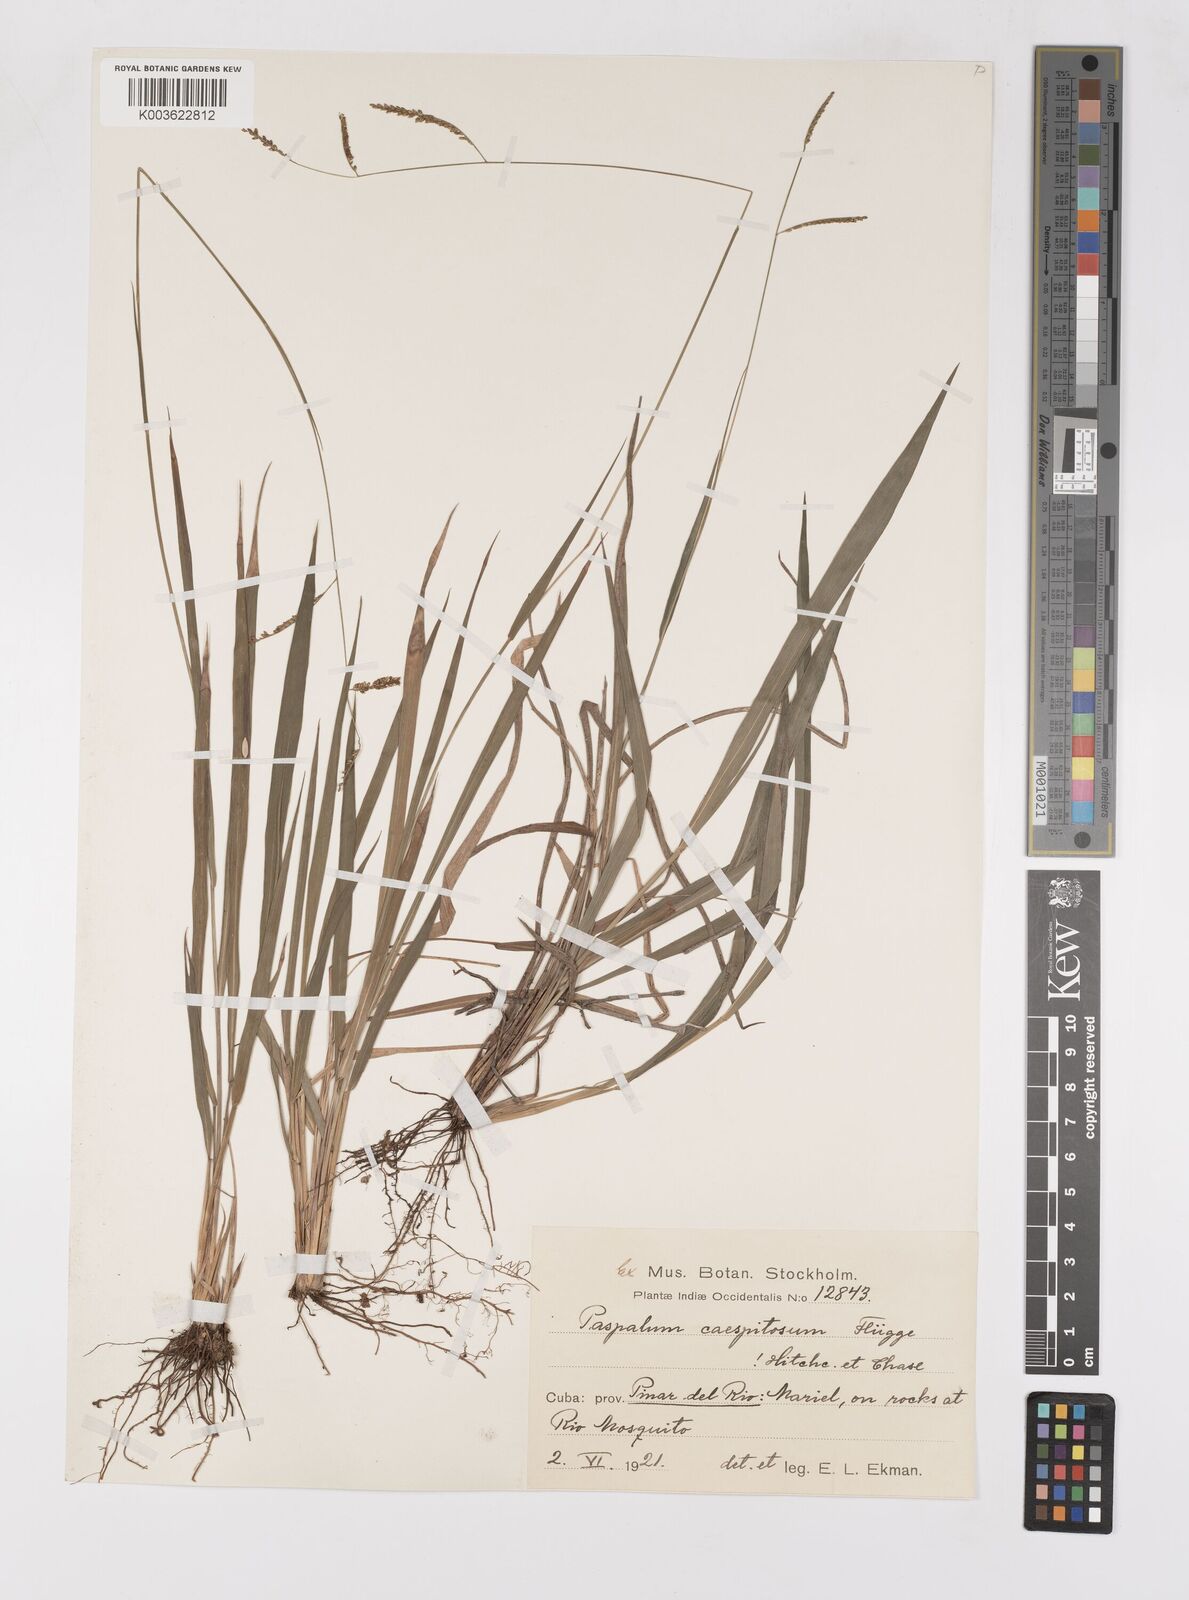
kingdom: Plantae
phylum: Tracheophyta
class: Liliopsida
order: Poales
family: Poaceae
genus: Paspalum
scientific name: Paspalum caespitosum
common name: Blue crowngrass
